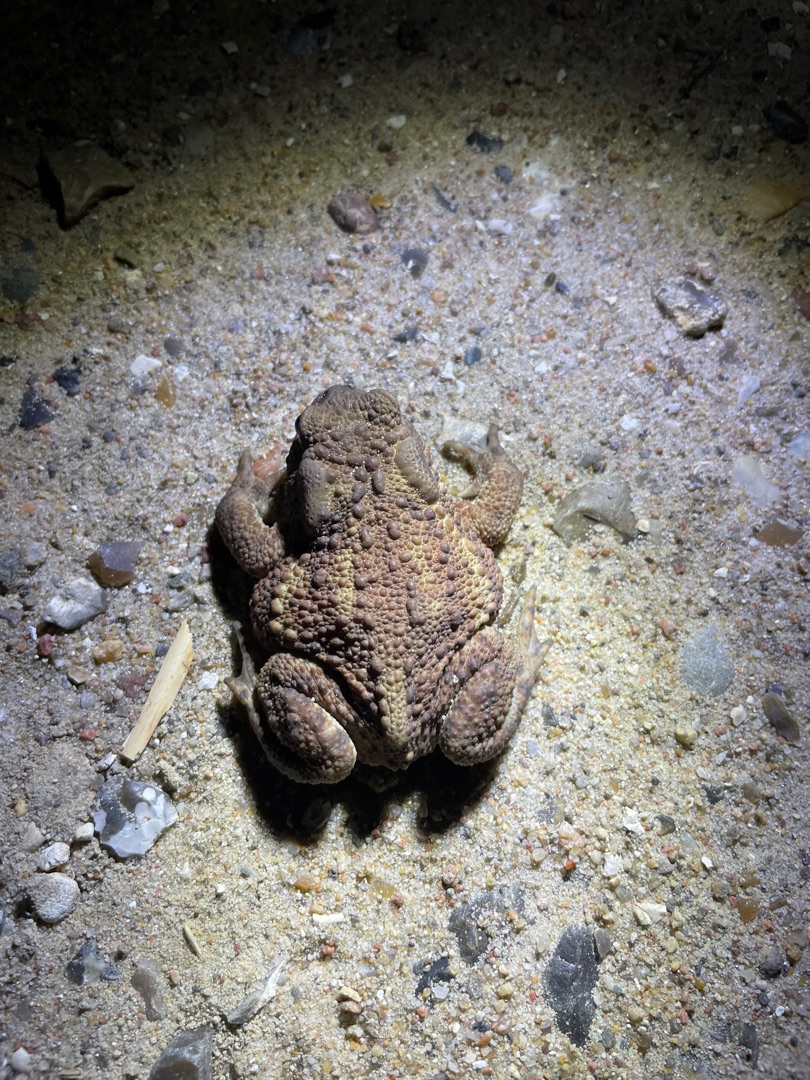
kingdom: Animalia
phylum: Chordata
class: Amphibia
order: Anura
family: Bufonidae
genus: Bufo
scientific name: Bufo bufo
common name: Skrubtudse
